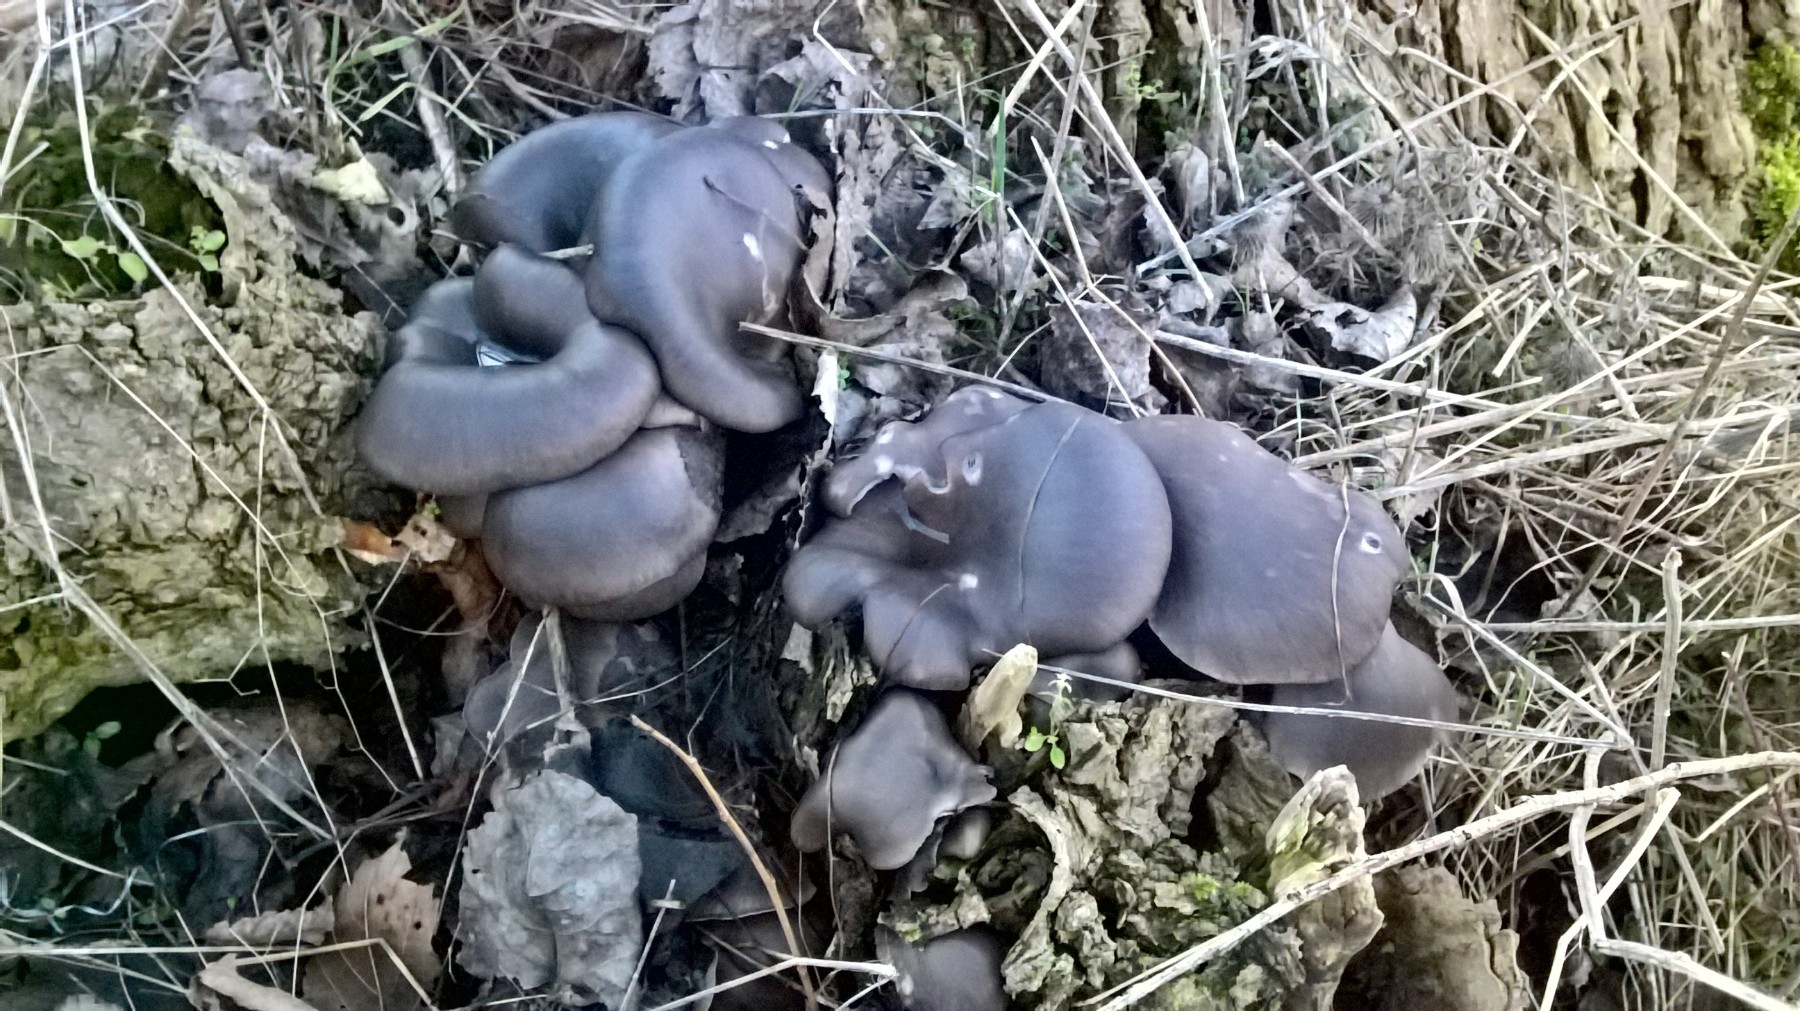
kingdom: Fungi
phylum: Basidiomycota
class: Agaricomycetes
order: Agaricales
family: Pleurotaceae
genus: Pleurotus
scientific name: Pleurotus ostreatus
